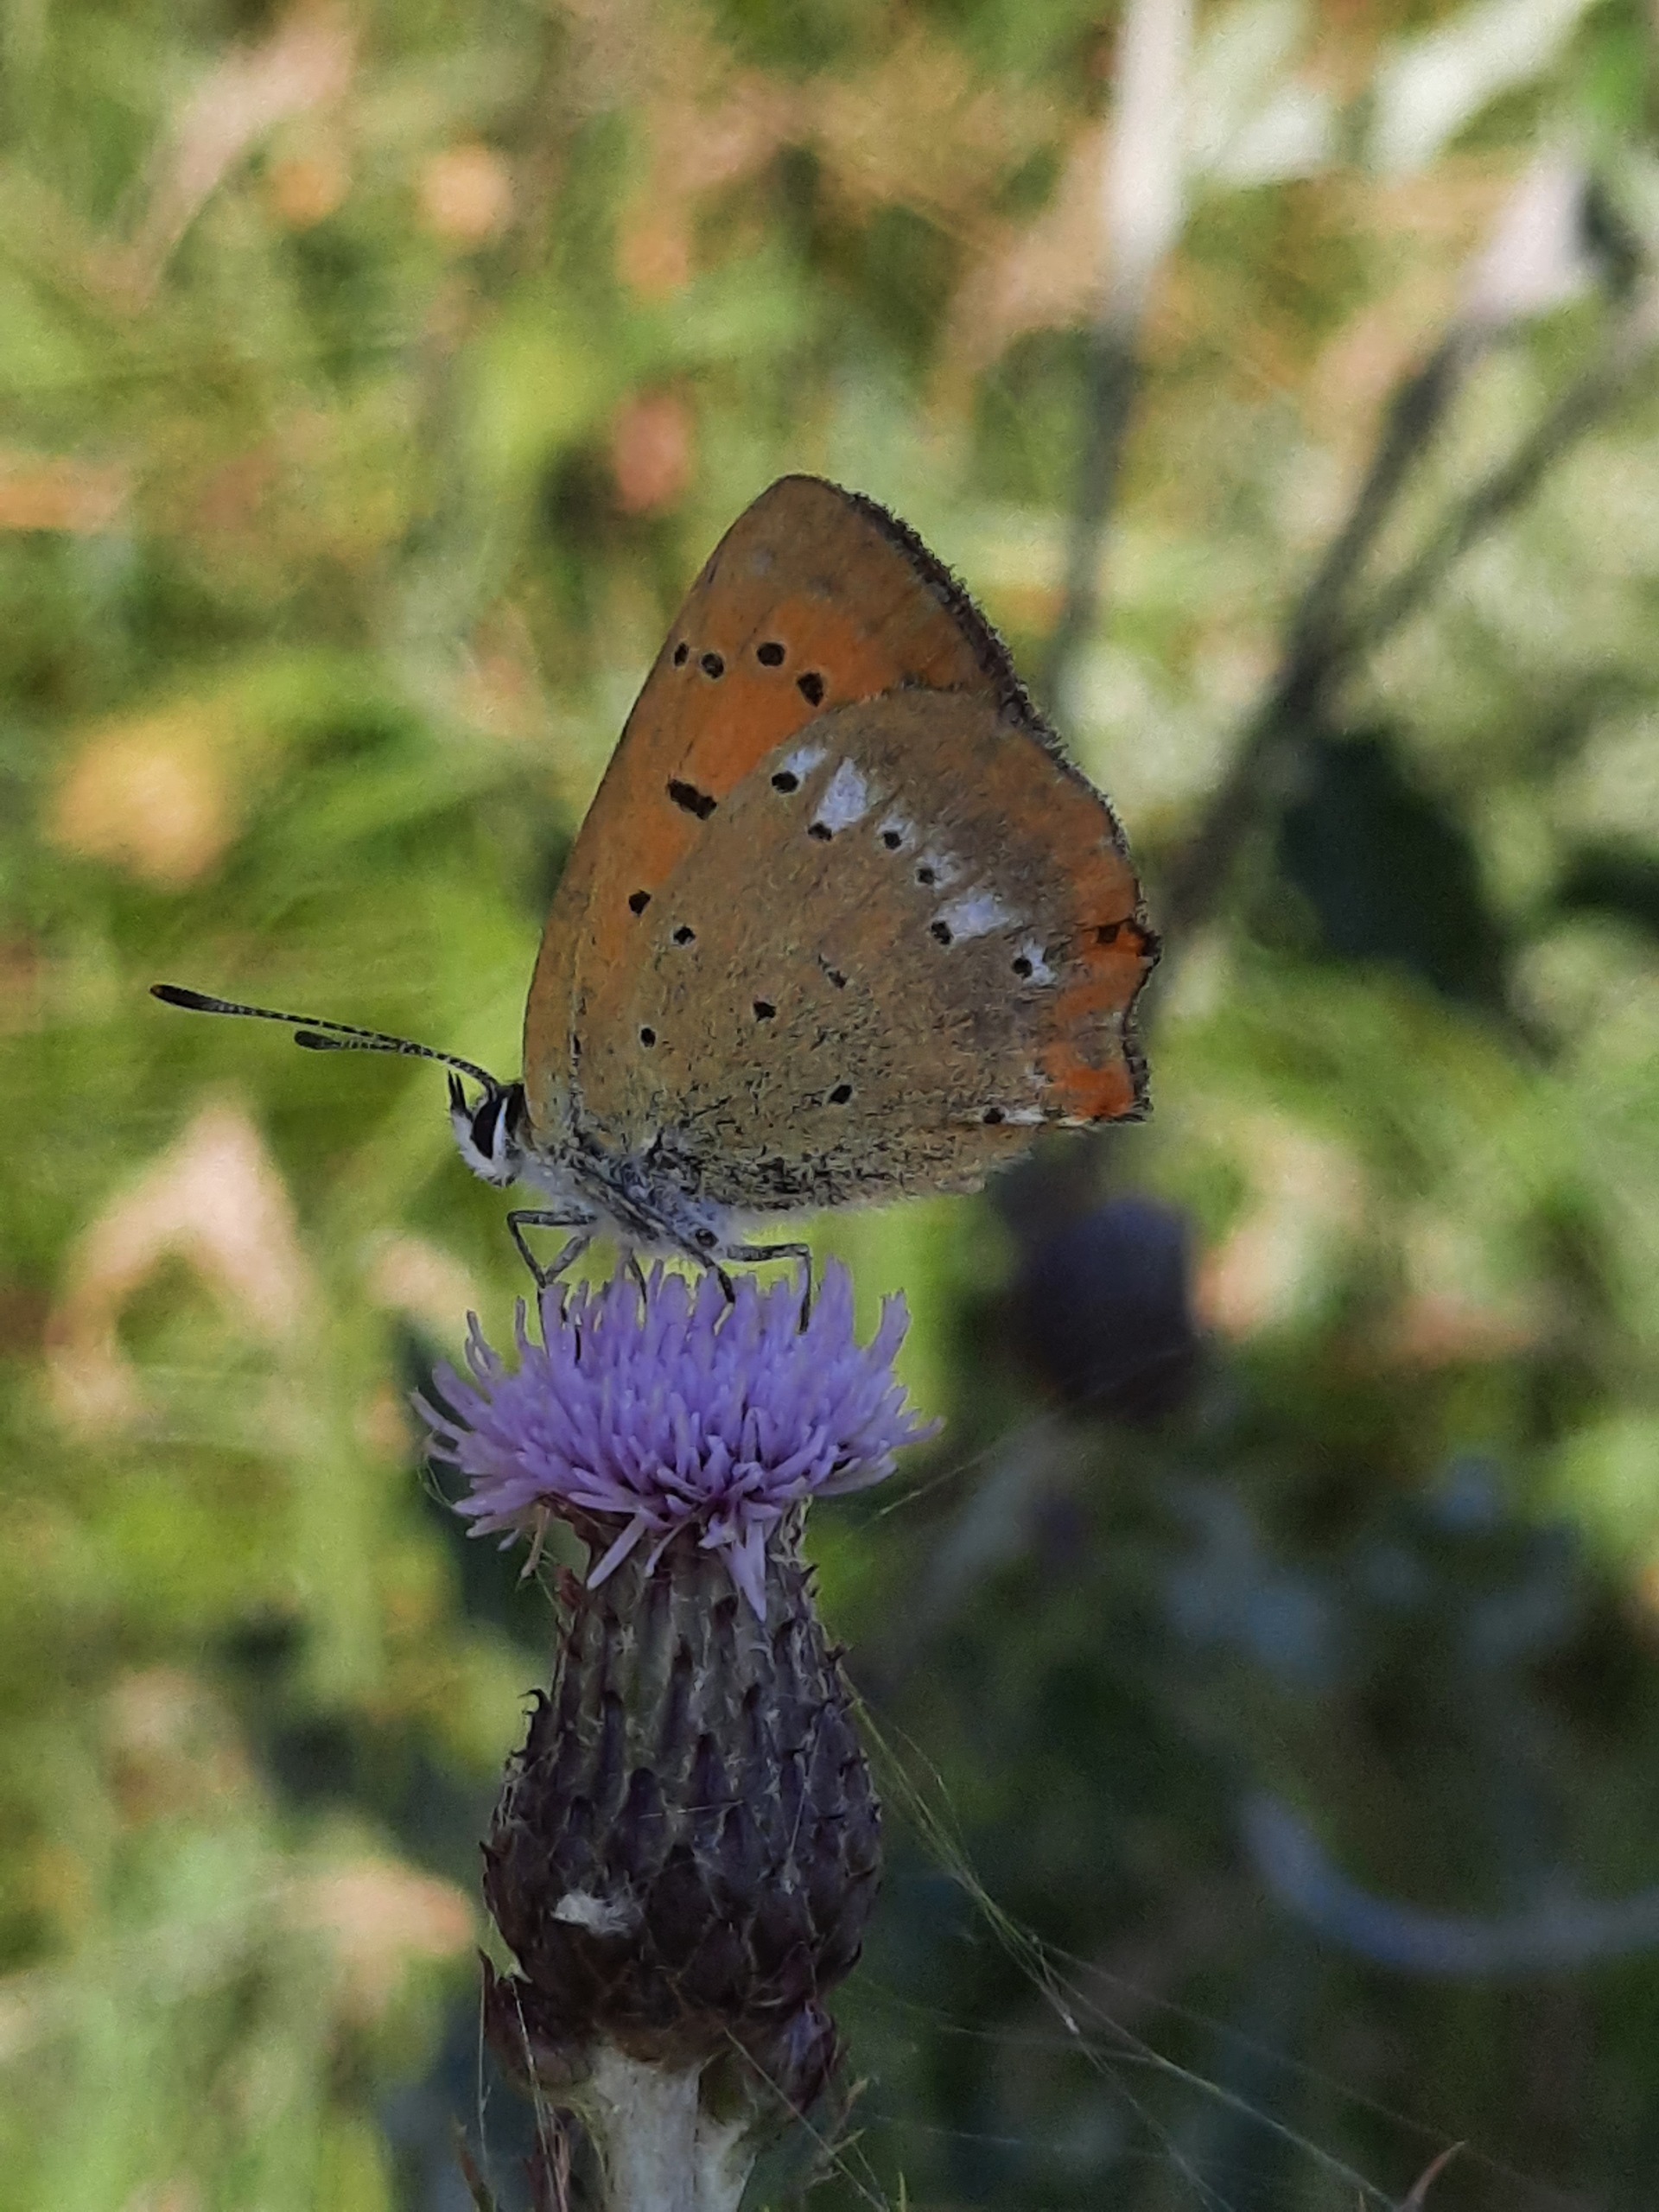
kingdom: Animalia
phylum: Arthropoda
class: Insecta
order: Lepidoptera
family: Lycaenidae
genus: Lycaena
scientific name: Lycaena virgaureae
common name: Dukatsommerfugl
